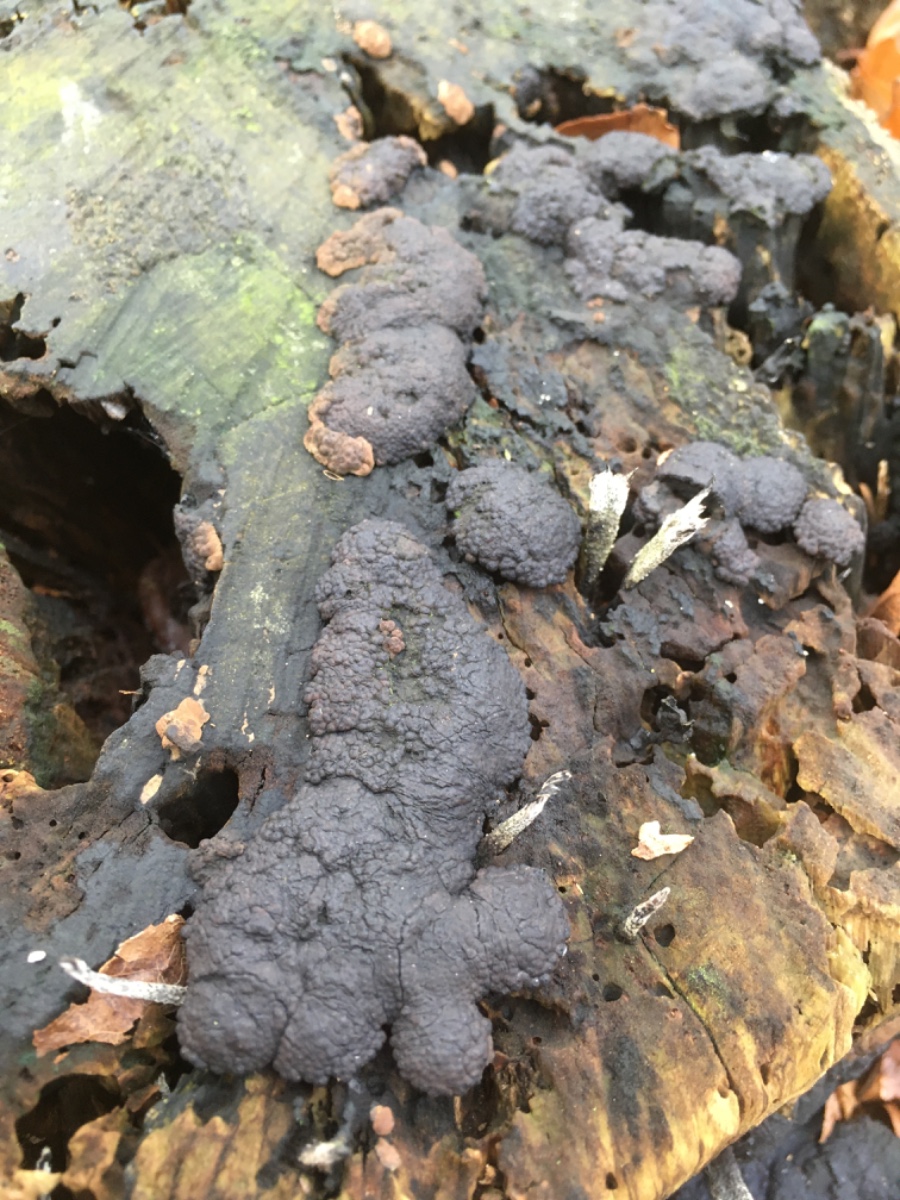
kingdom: Fungi
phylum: Ascomycota
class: Sordariomycetes
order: Xylariales
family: Hypoxylaceae
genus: Jackrogersella
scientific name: Jackrogersella
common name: kulbær
